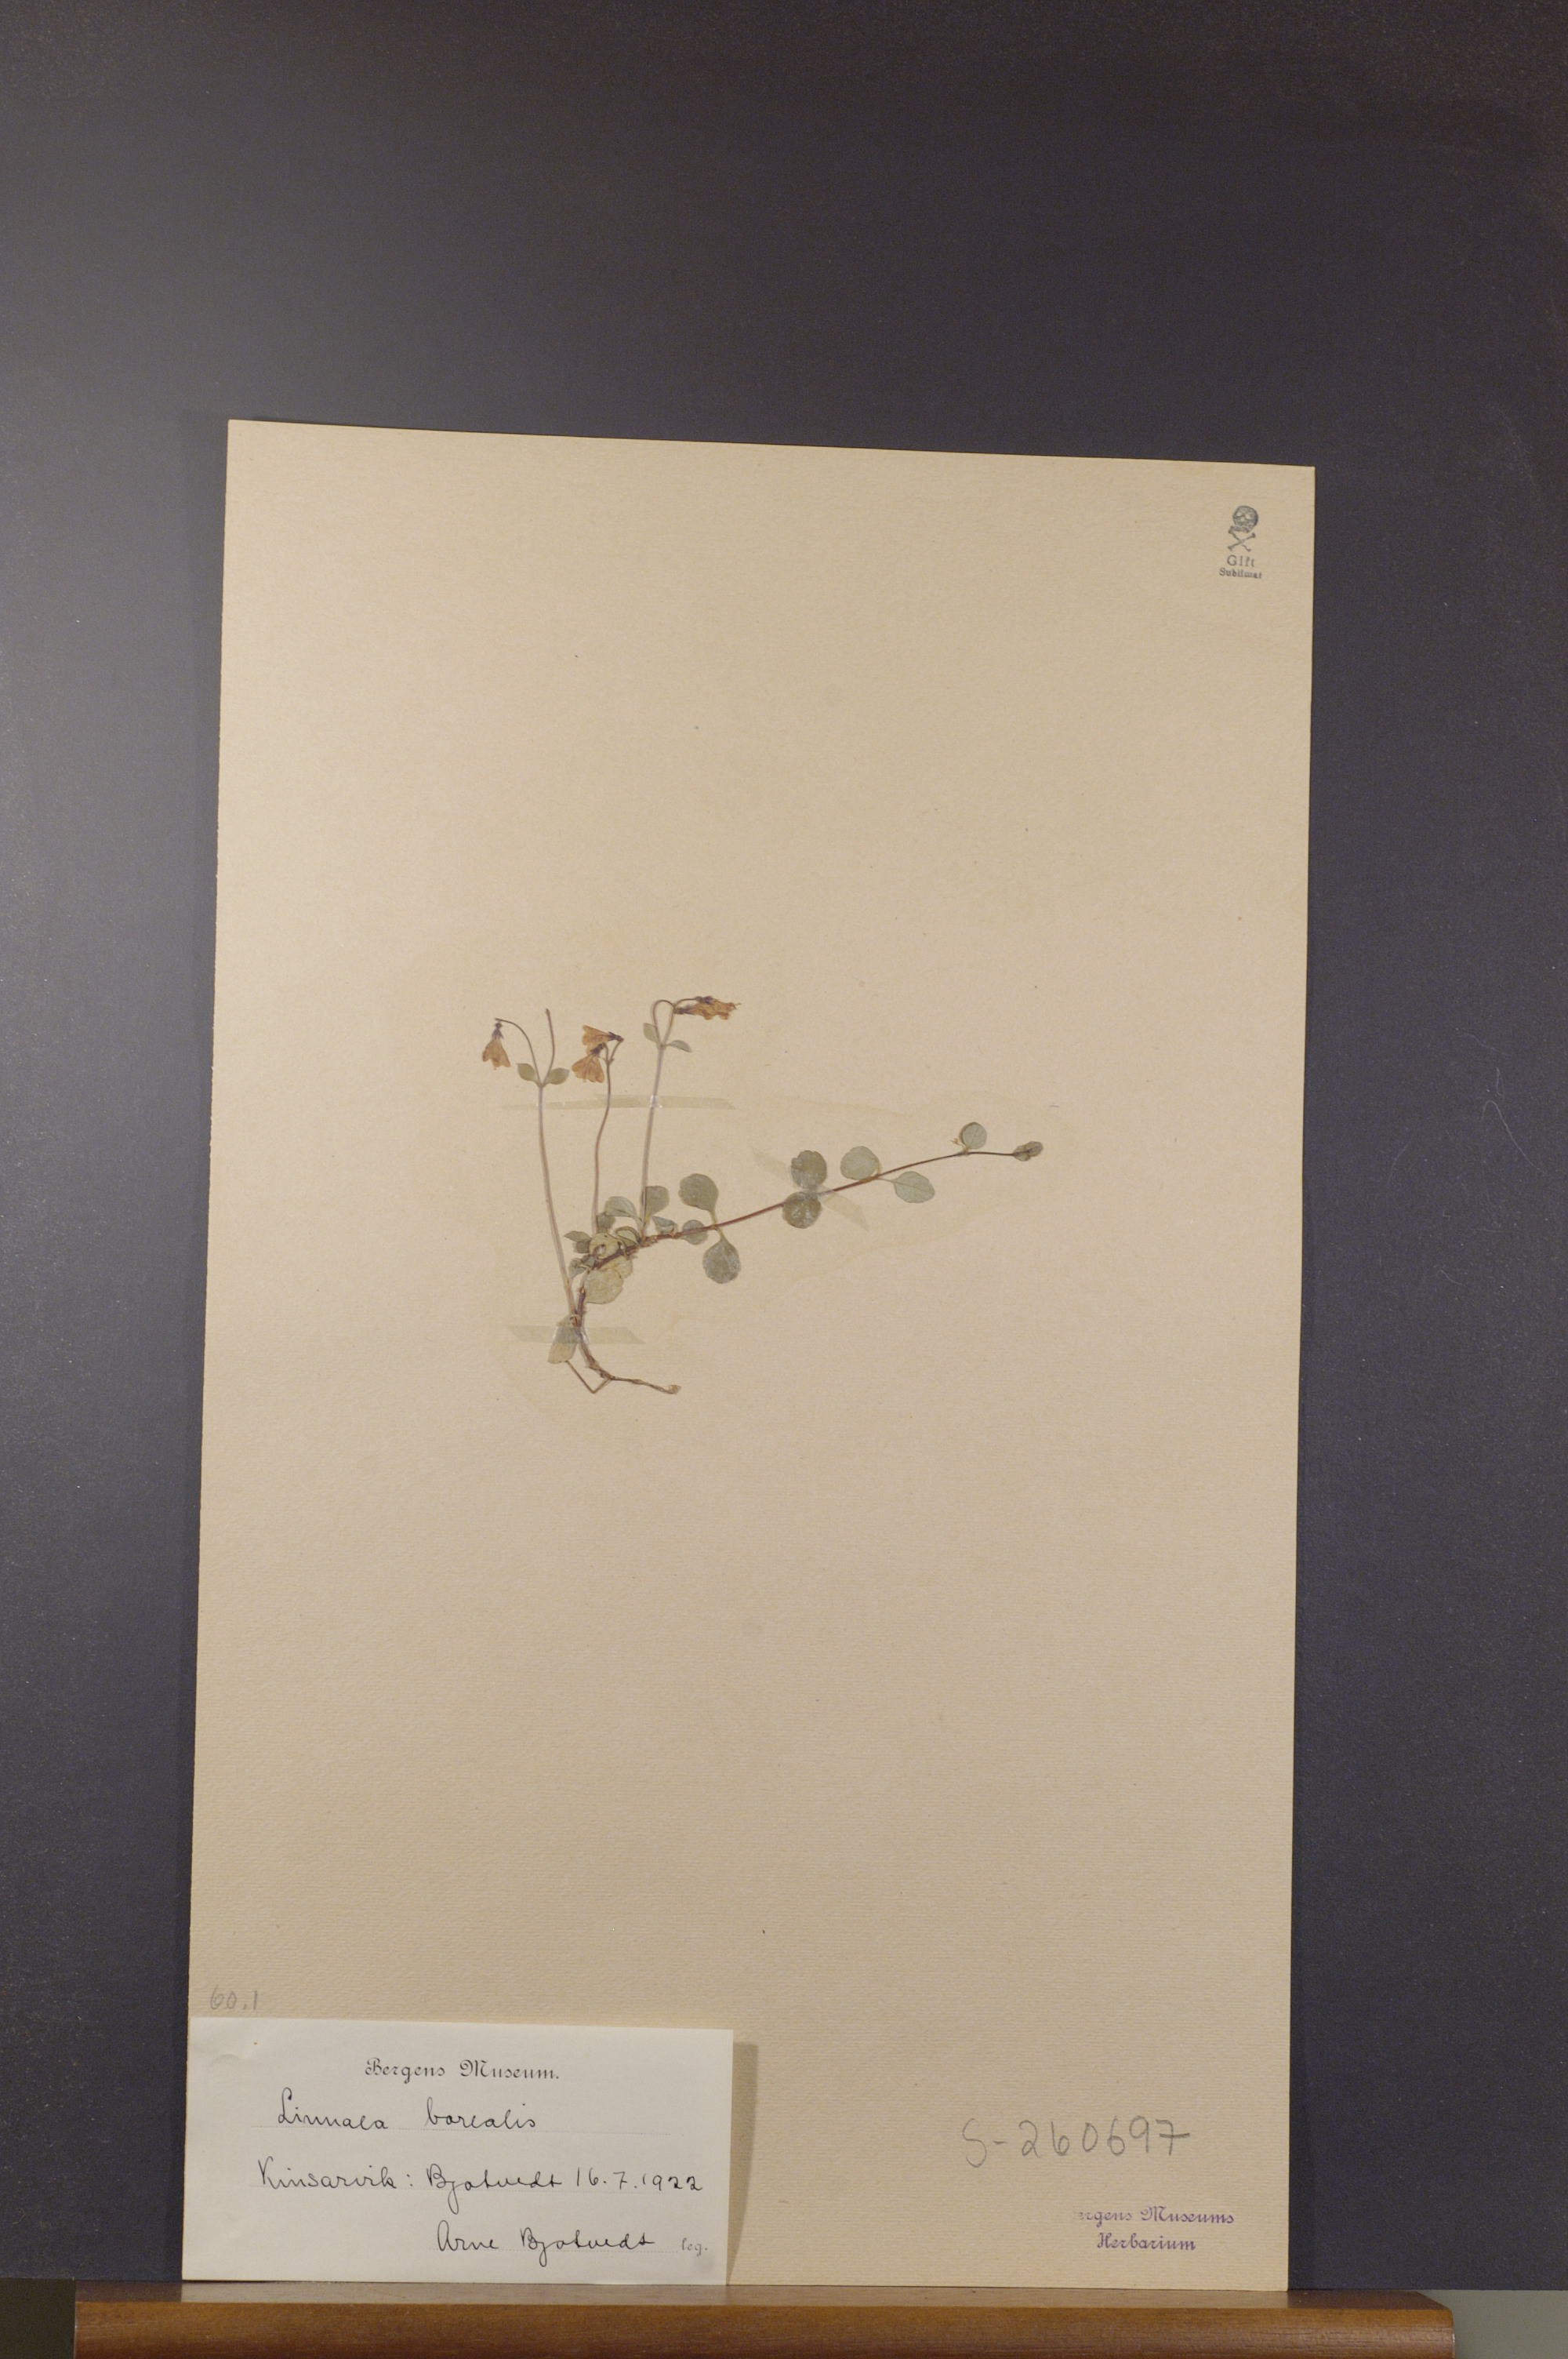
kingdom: Plantae
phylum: Tracheophyta
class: Magnoliopsida
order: Dipsacales
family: Caprifoliaceae
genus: Linnaea
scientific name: Linnaea borealis
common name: Twinflower
